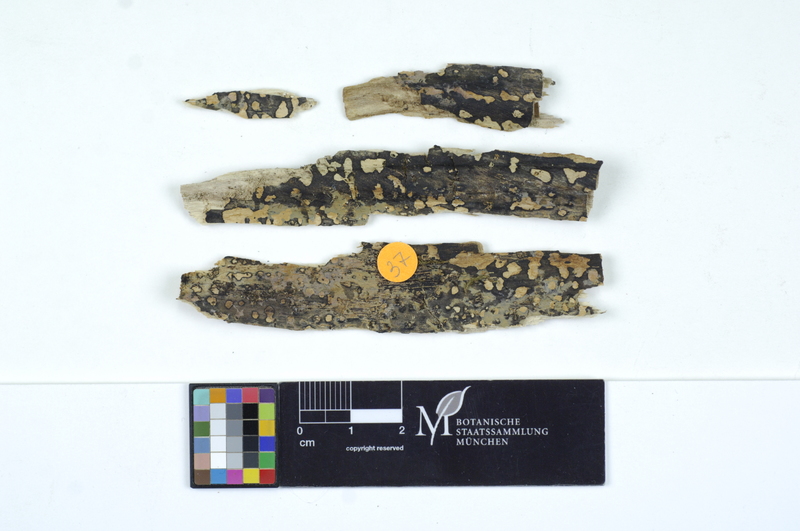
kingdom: Fungi
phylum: Basidiomycota
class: Agaricomycetes
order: Auriculariales
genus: Basidiodendron
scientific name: Basidiodendron eyrei
